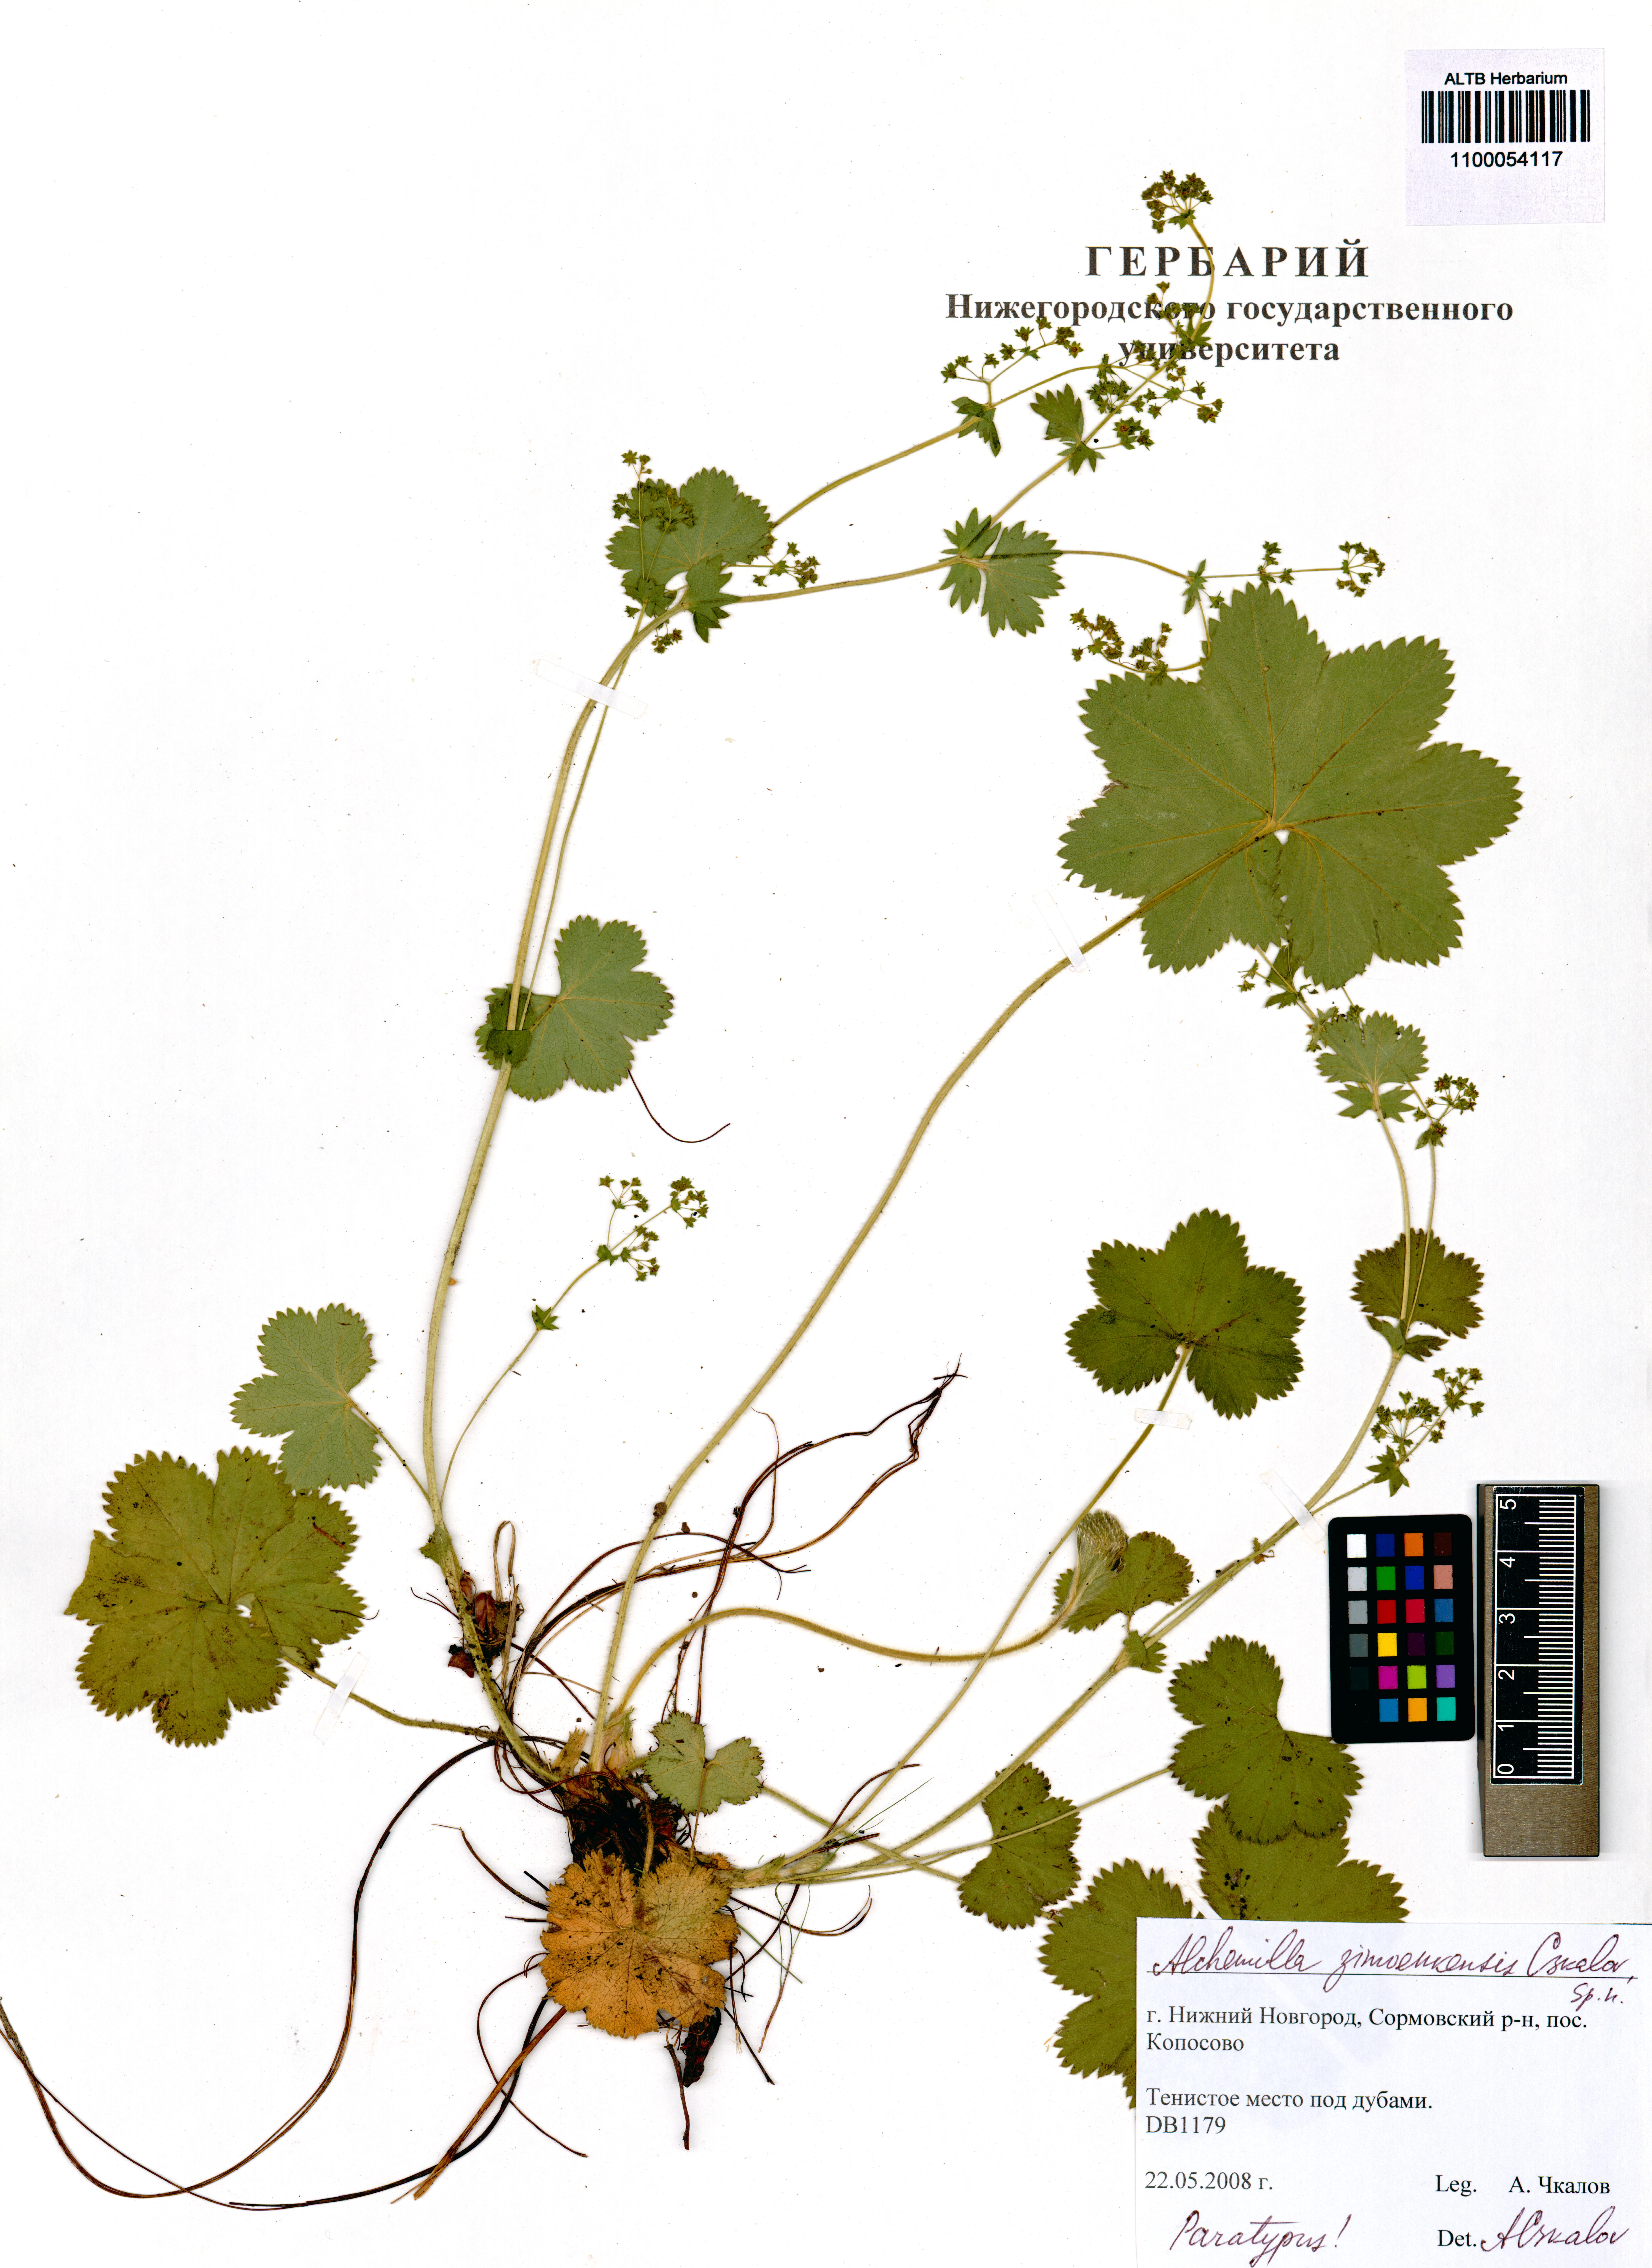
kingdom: Plantae
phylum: Tracheophyta
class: Magnoliopsida
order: Rosales
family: Rosaceae
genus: Alchemilla
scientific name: Alchemilla zimoenkensis
